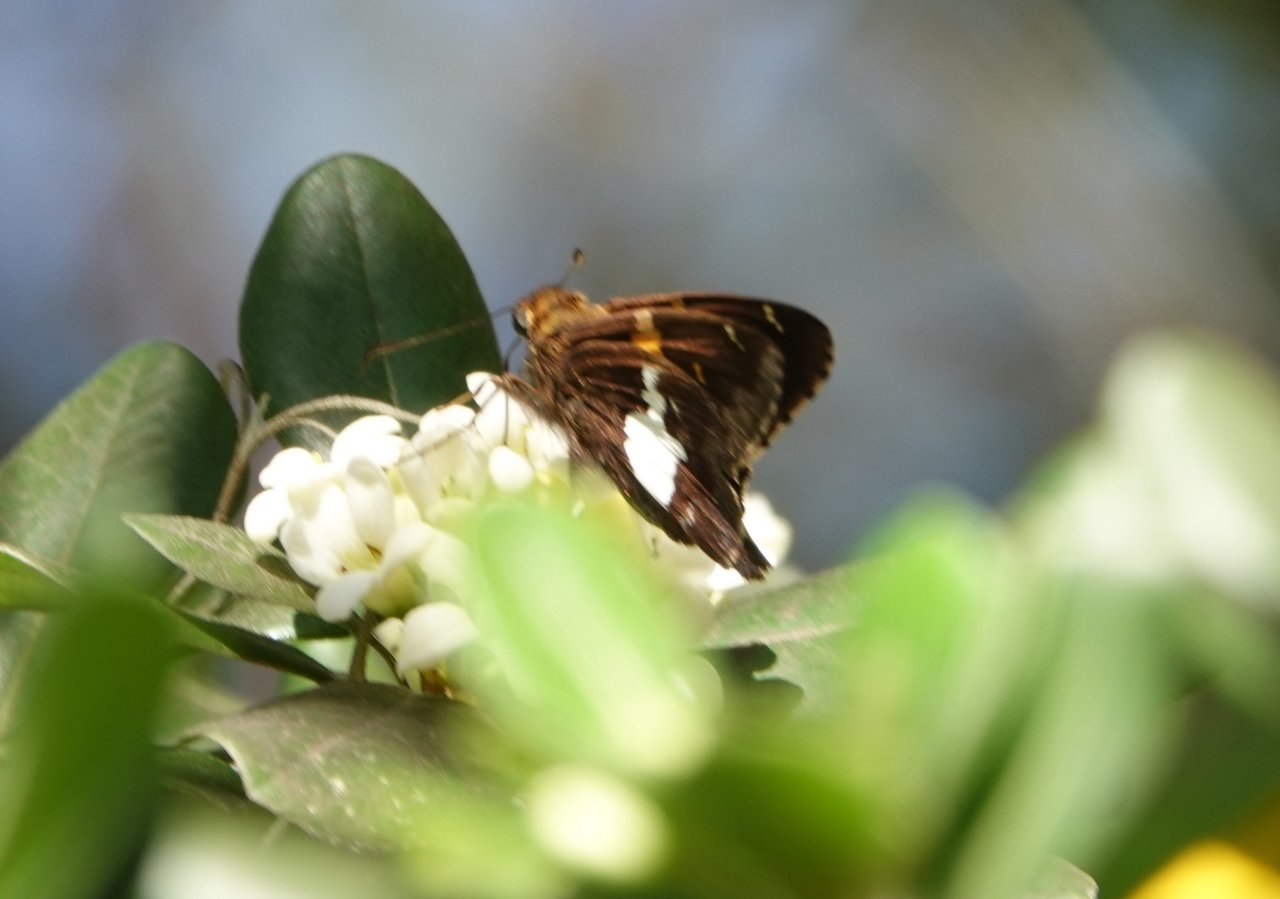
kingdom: Animalia
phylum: Arthropoda
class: Insecta
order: Lepidoptera
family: Hesperiidae
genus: Epargyreus
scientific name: Epargyreus clarus
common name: Silver-spotted Skipper
